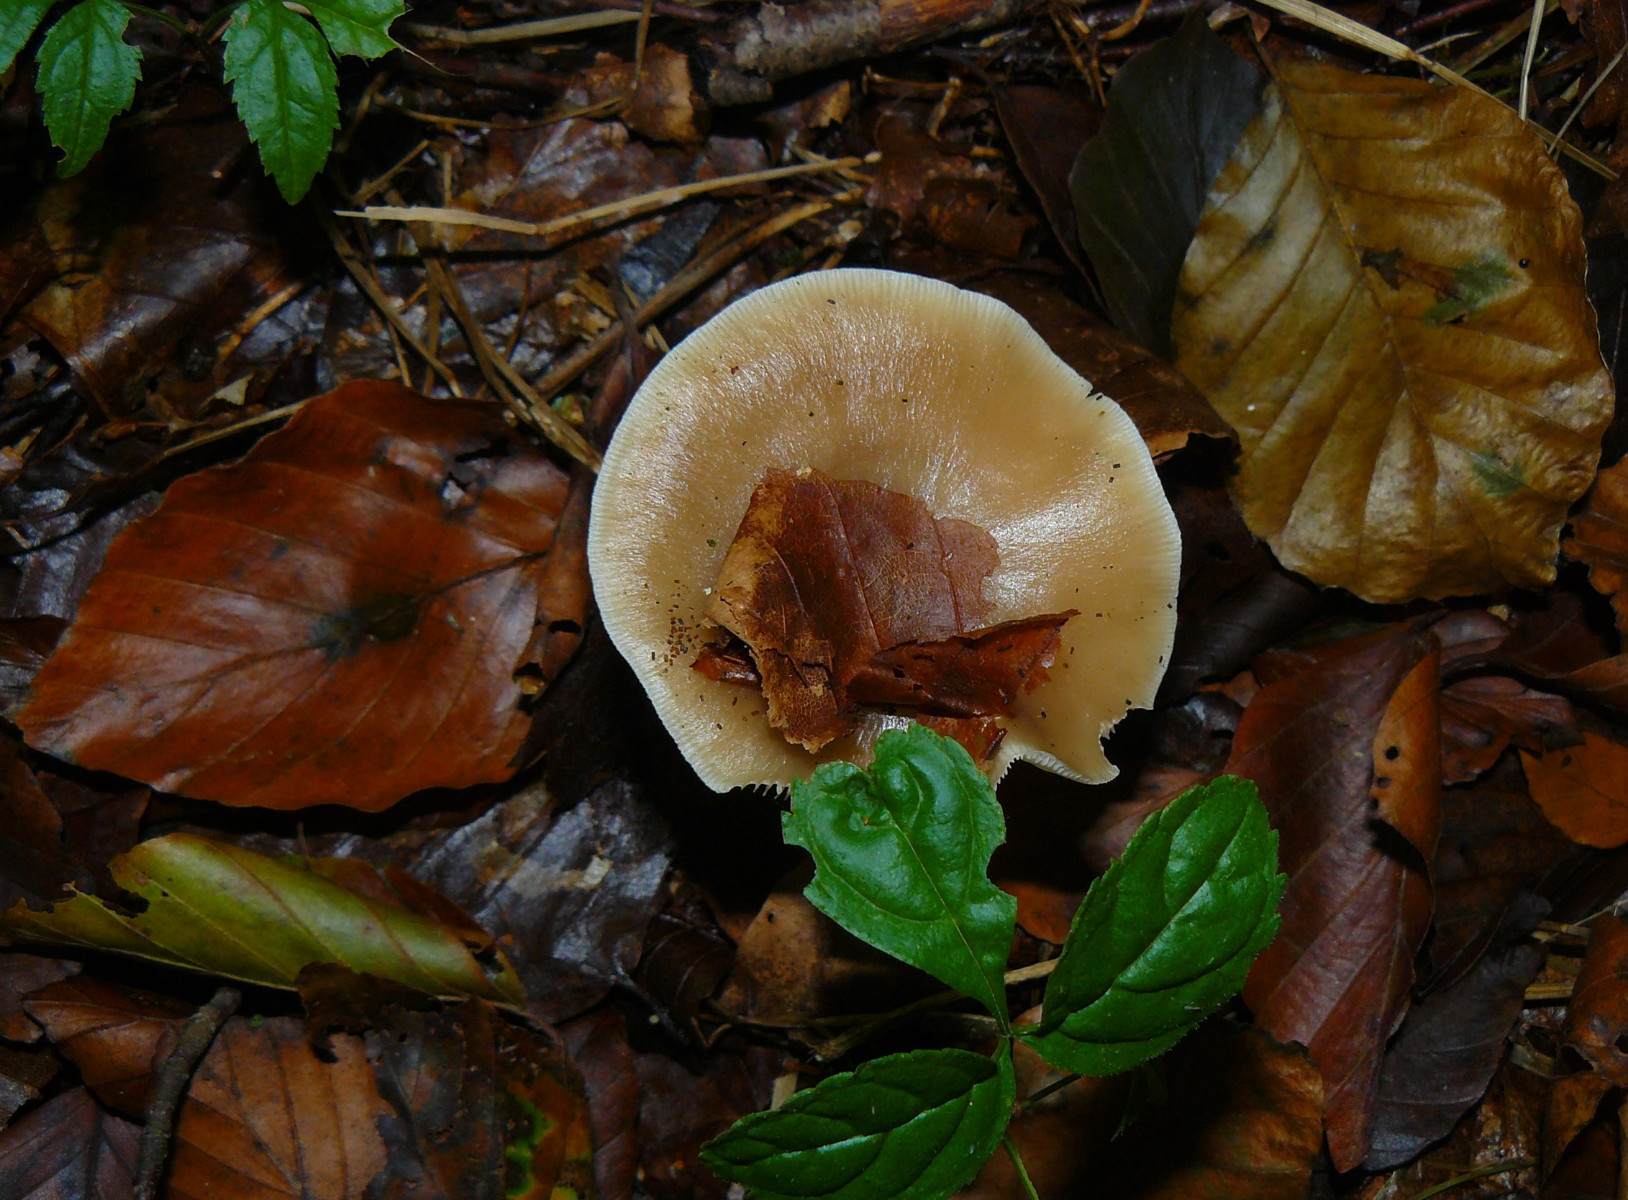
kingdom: Fungi
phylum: Basidiomycota
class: Agaricomycetes
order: Agaricales
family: Omphalotaceae
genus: Rhodocollybia
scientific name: Rhodocollybia asema
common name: horngrå fladhat
